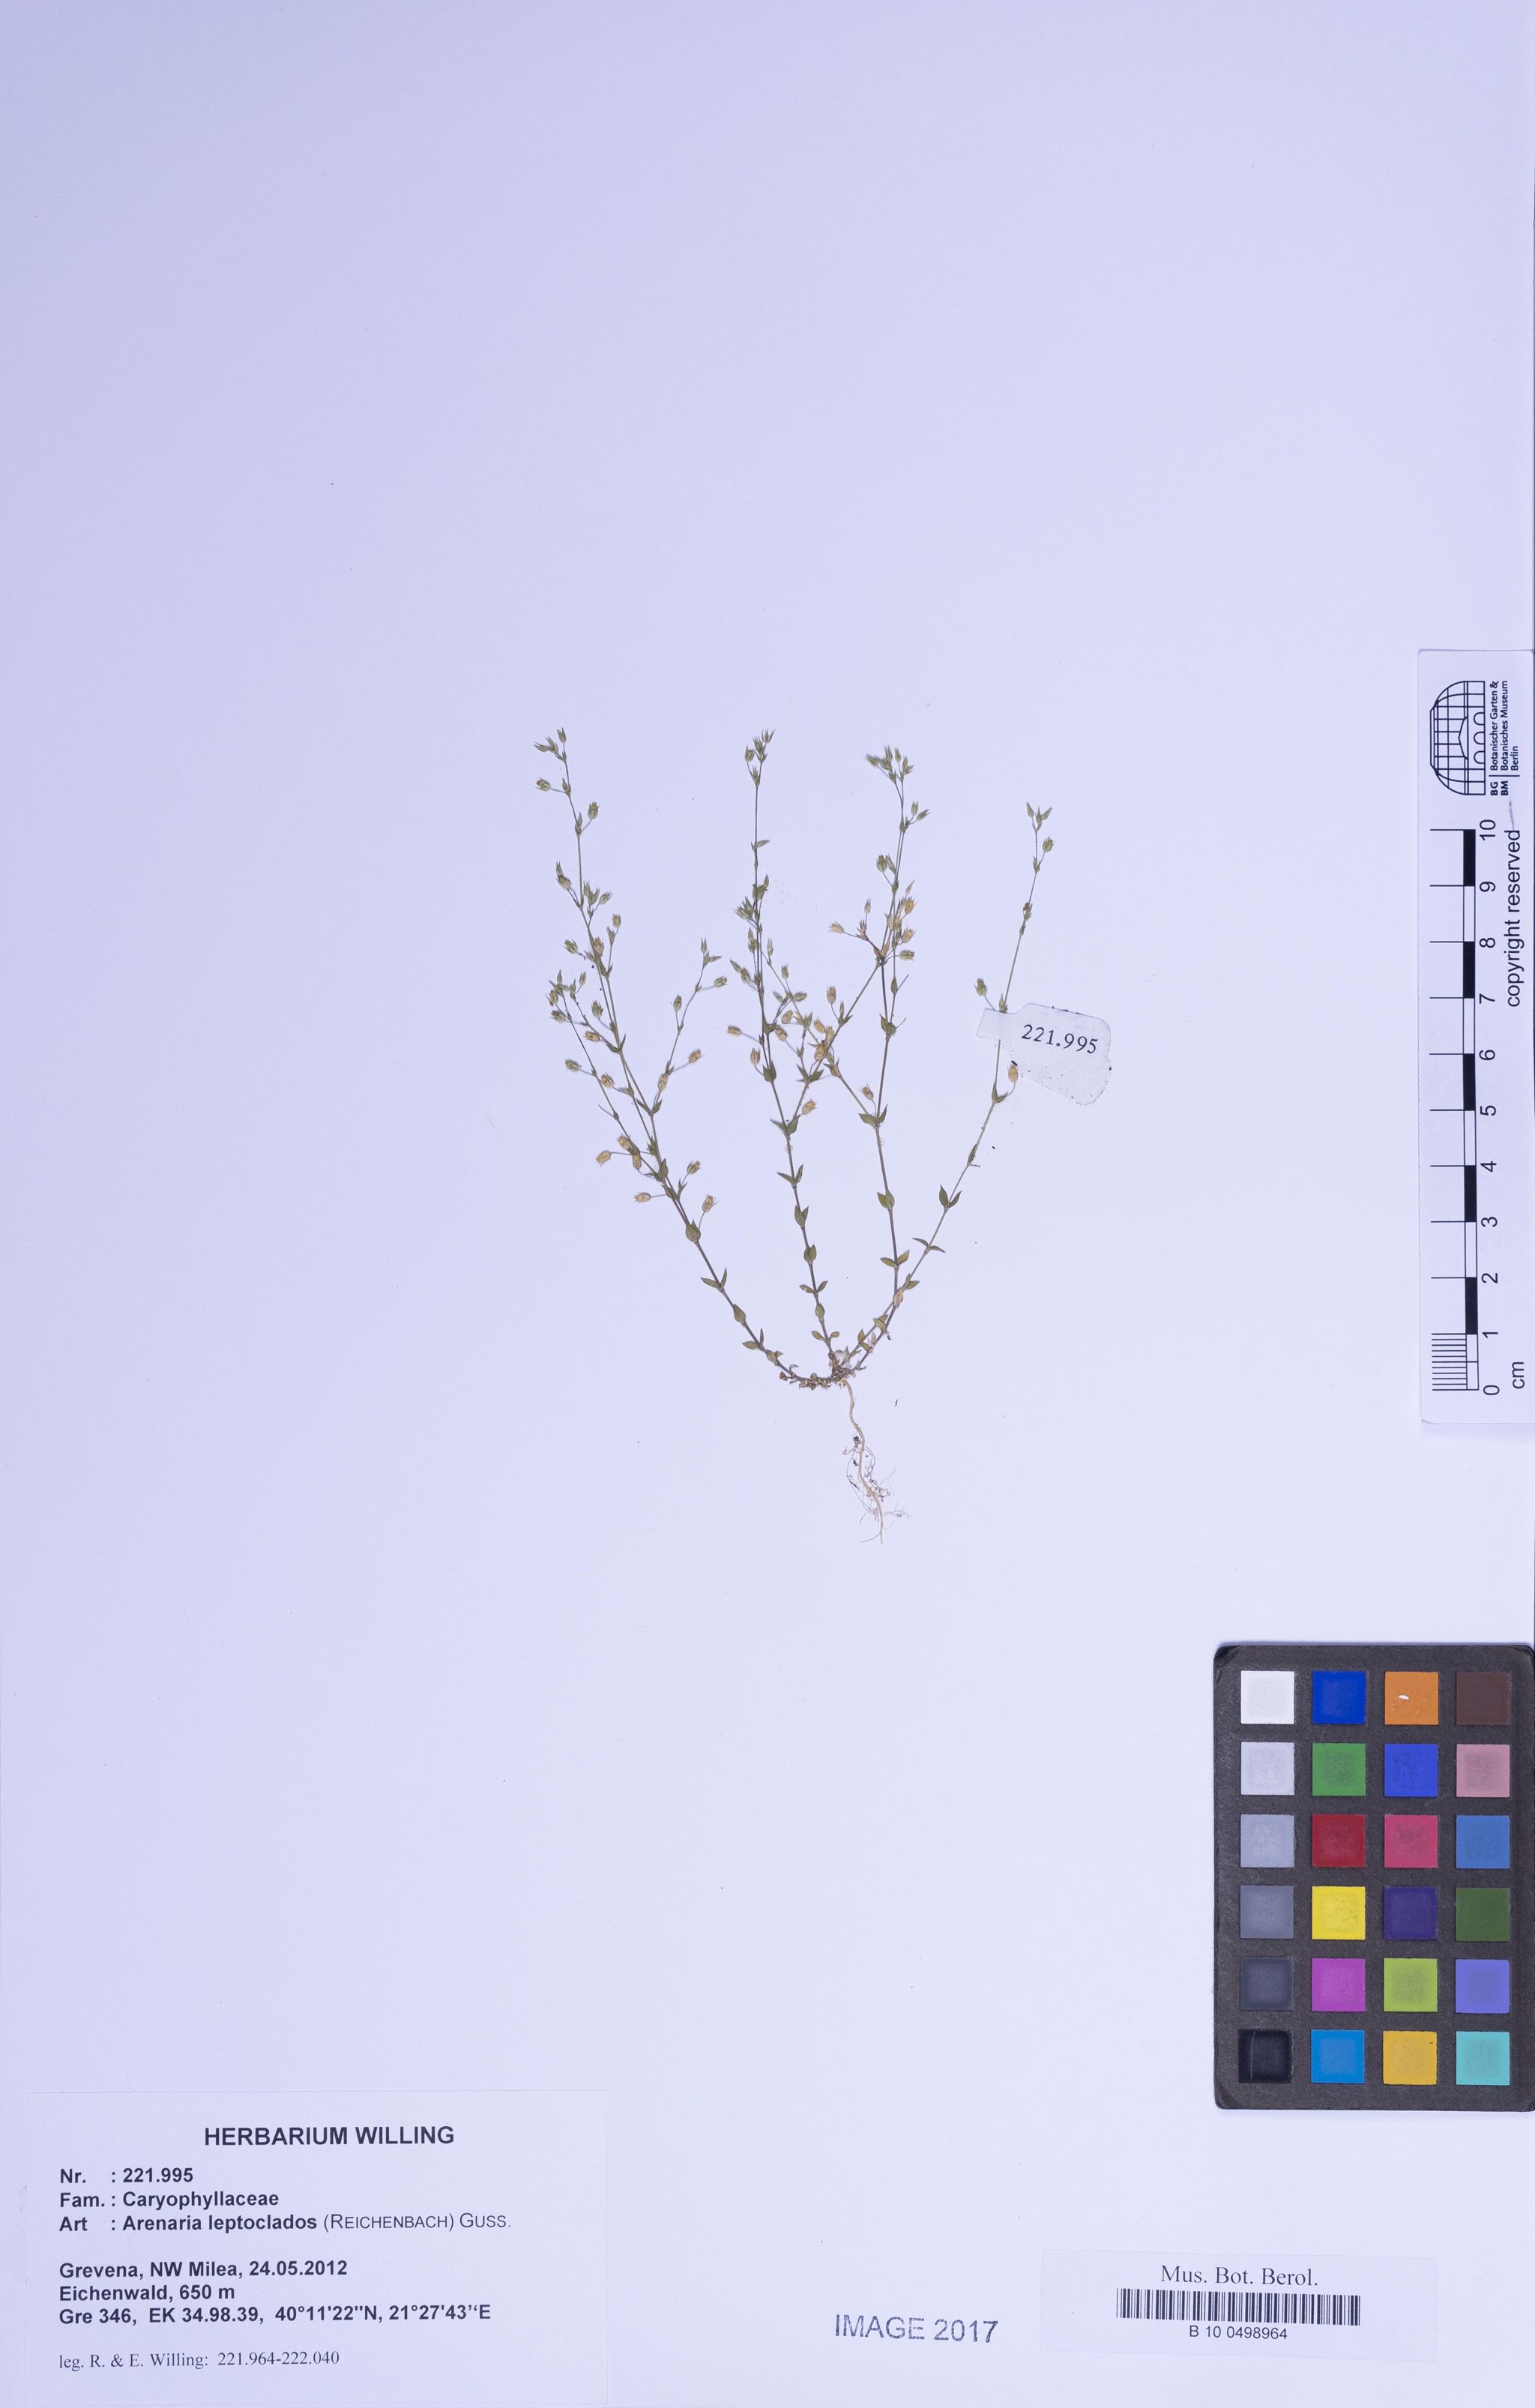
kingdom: Plantae
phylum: Tracheophyta
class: Magnoliopsida
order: Caryophyllales
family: Caryophyllaceae
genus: Arenaria
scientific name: Arenaria leptoclados
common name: Thyme-leaved sandwort
